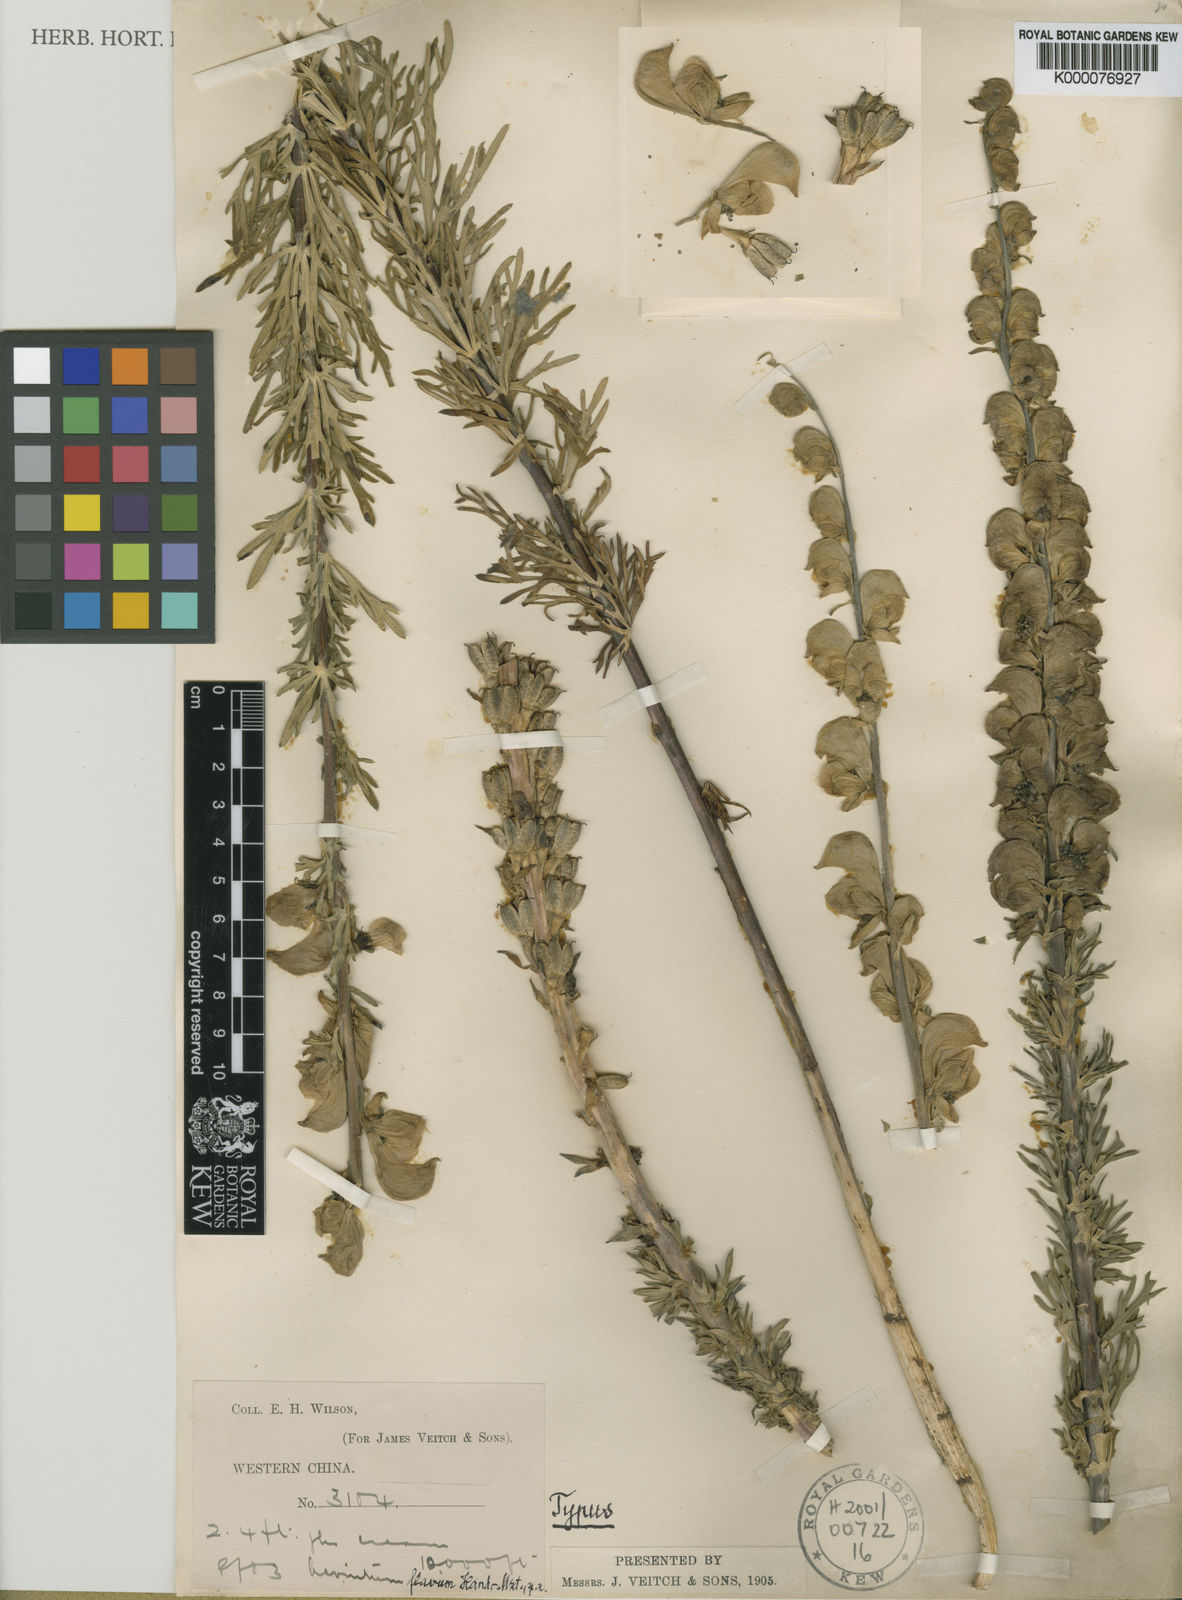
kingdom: Plantae
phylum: Tracheophyta
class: Magnoliopsida
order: Ranunculales
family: Ranunculaceae
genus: Aconitum
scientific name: Aconitum flavum
